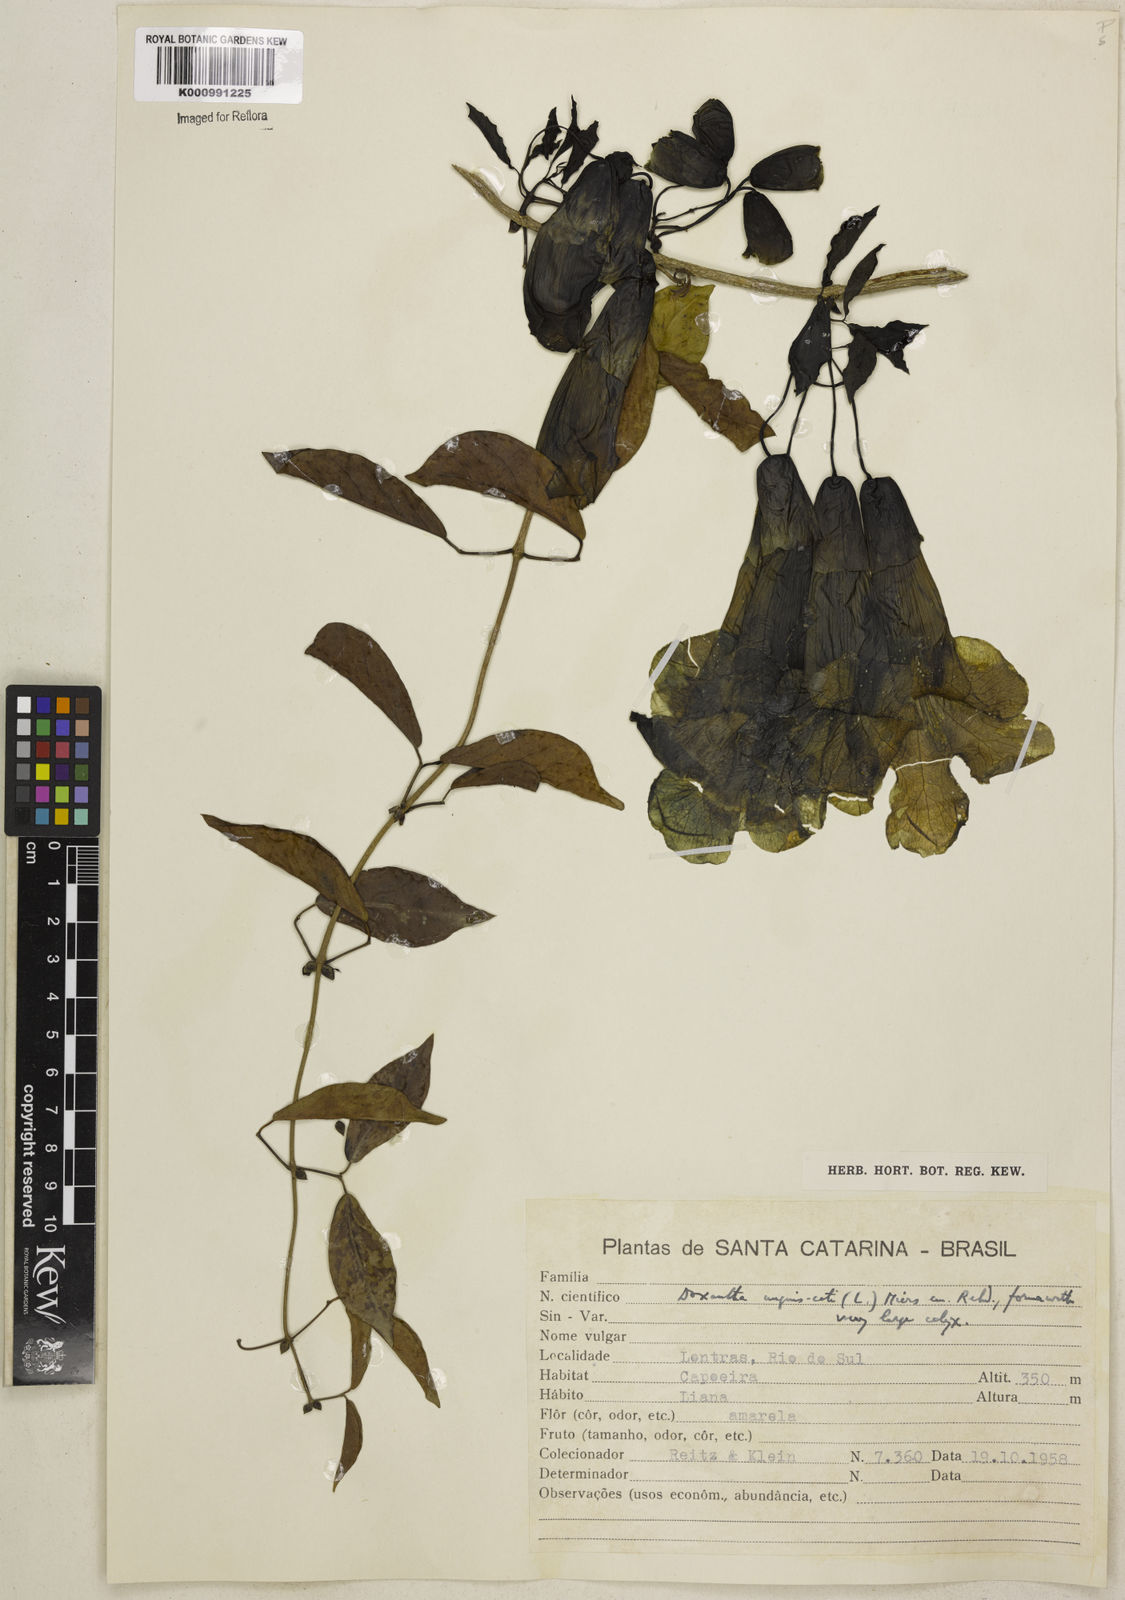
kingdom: Plantae
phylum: Tracheophyta
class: Magnoliopsida
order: Lamiales
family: Bignoniaceae
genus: Dolichandra
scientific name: Dolichandra unguis-cati
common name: Catclaw vine
